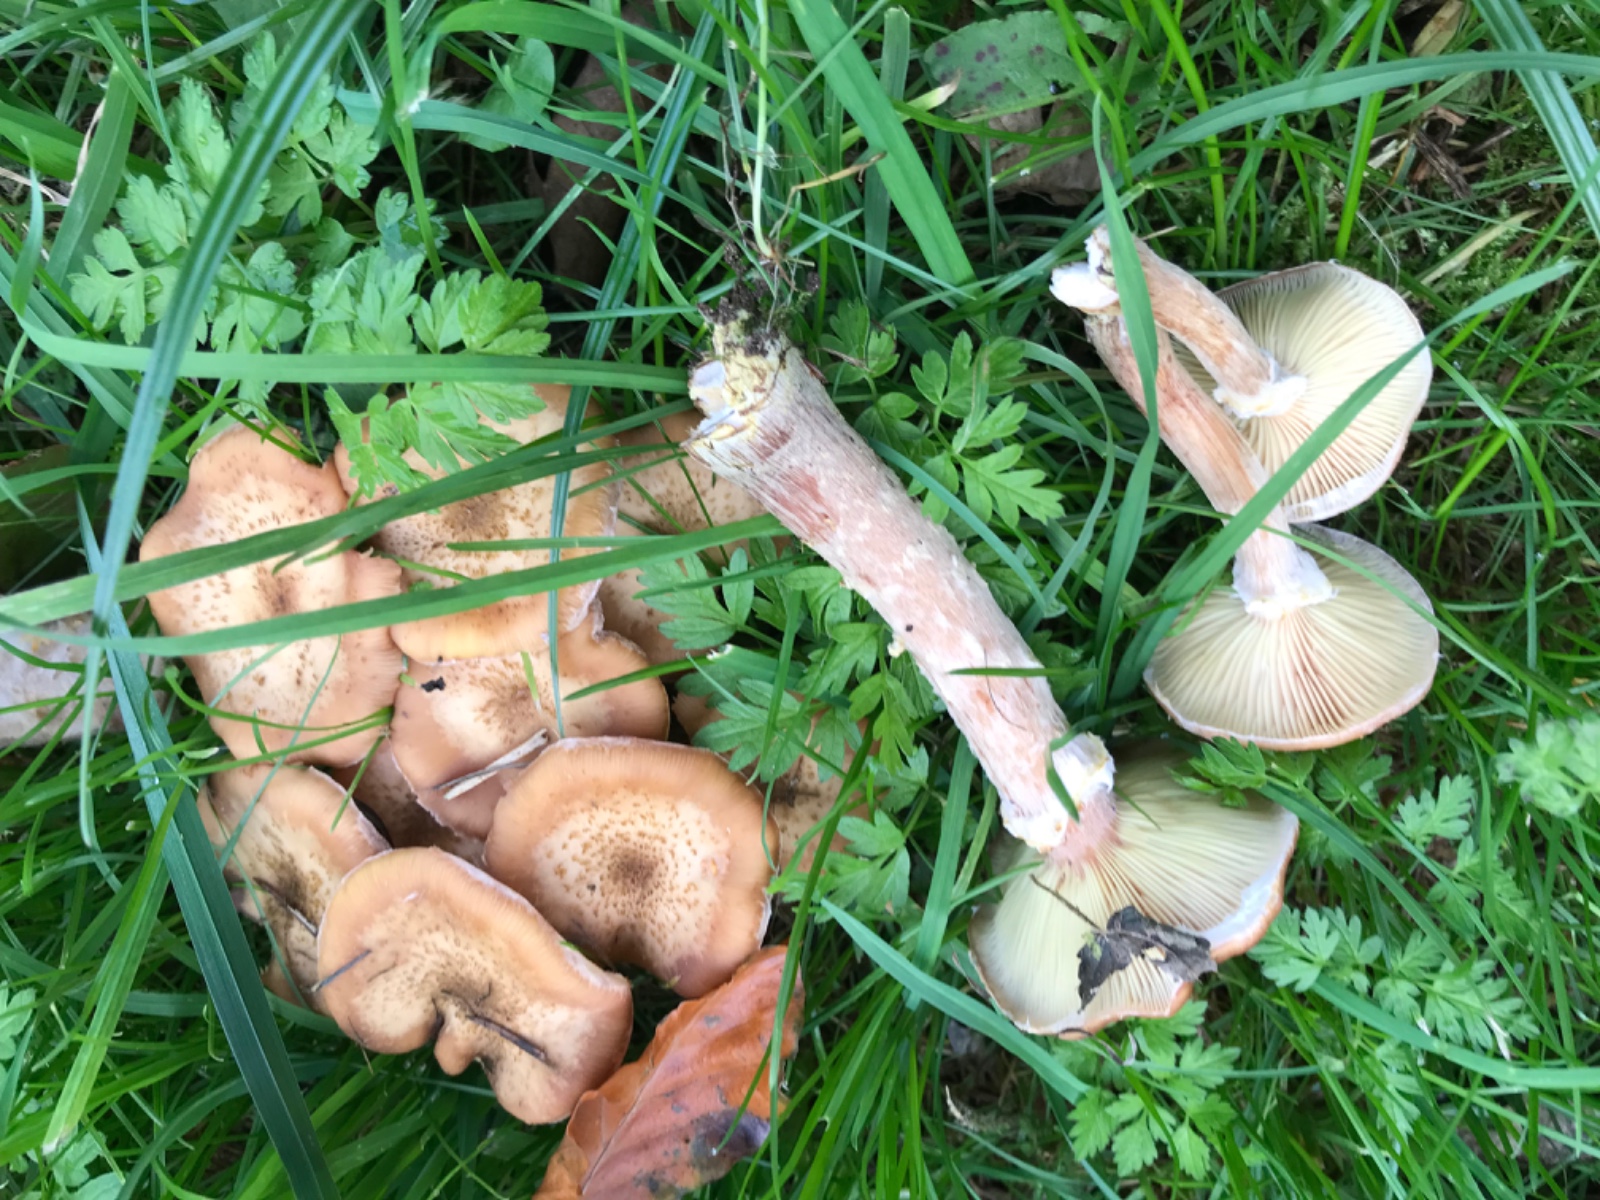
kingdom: Fungi
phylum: Basidiomycota
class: Agaricomycetes
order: Agaricales
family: Physalacriaceae
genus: Armillaria
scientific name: Armillaria lutea
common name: køllestokket honningsvamp
